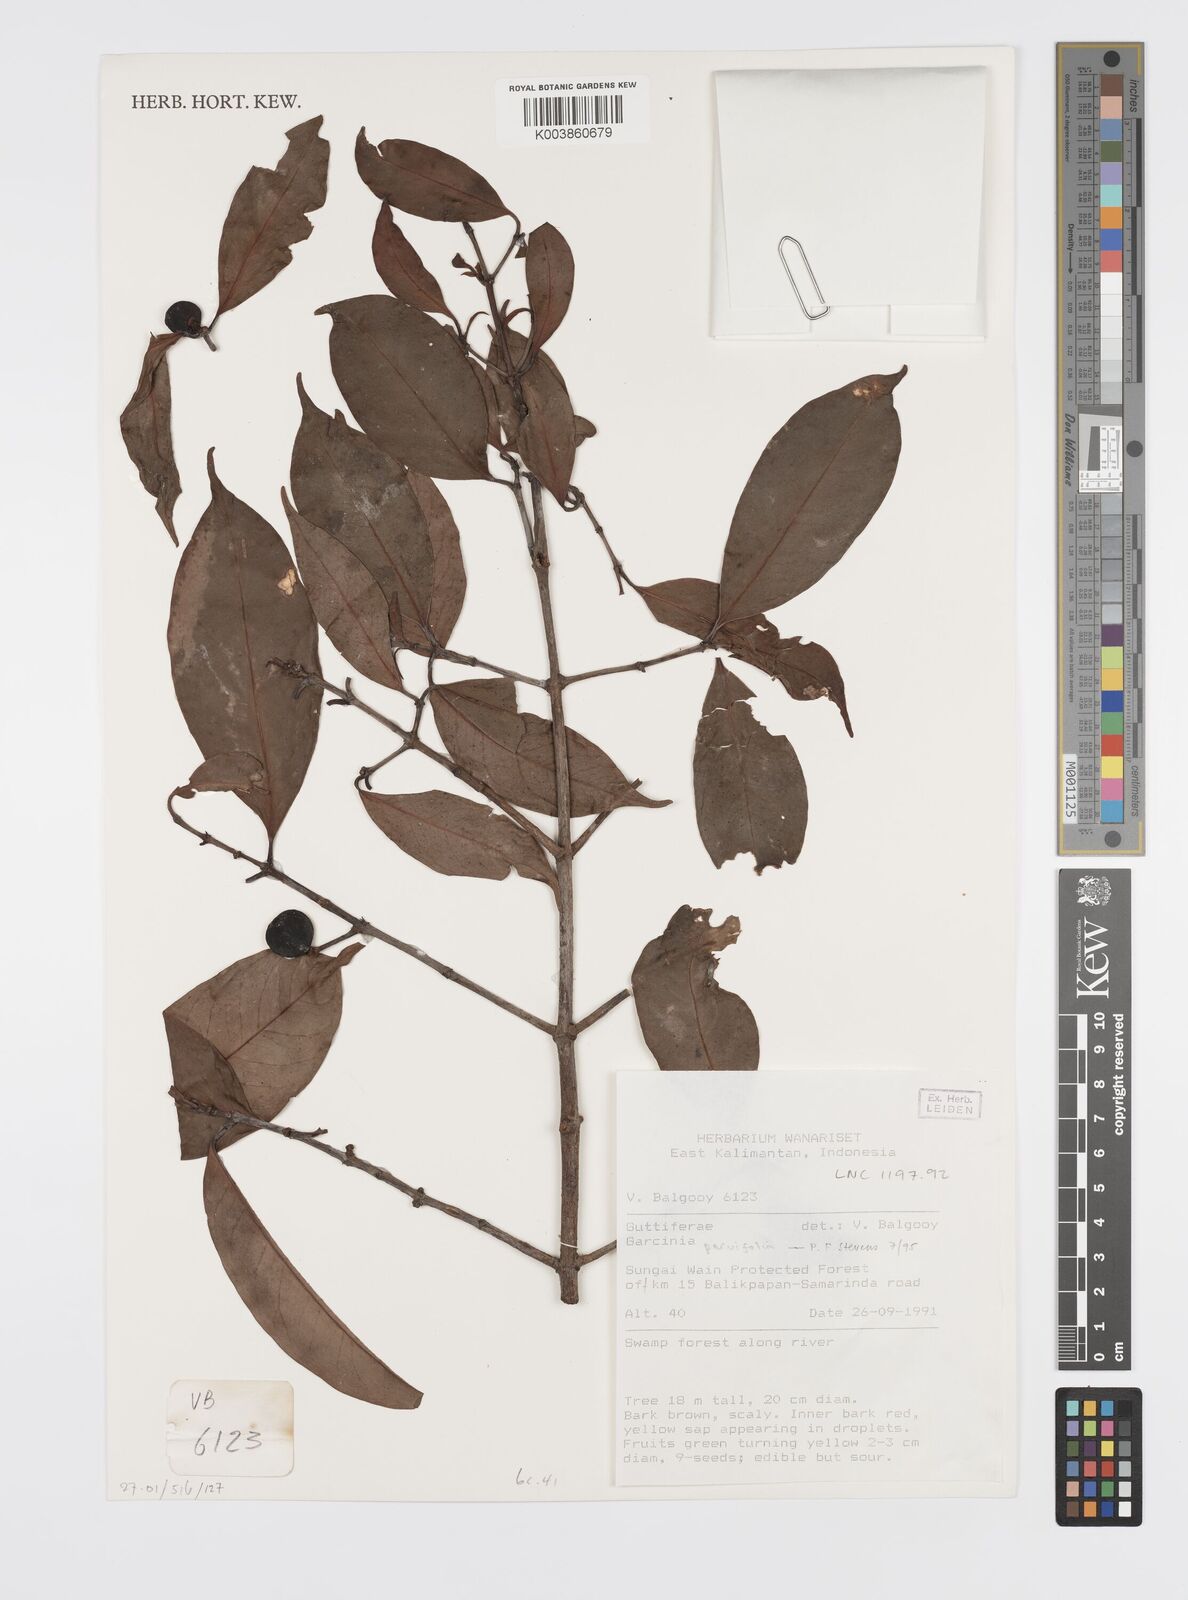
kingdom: Plantae
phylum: Tracheophyta
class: Magnoliopsida
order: Malpighiales
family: Clusiaceae
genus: Garcinia
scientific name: Garcinia parvifolia
